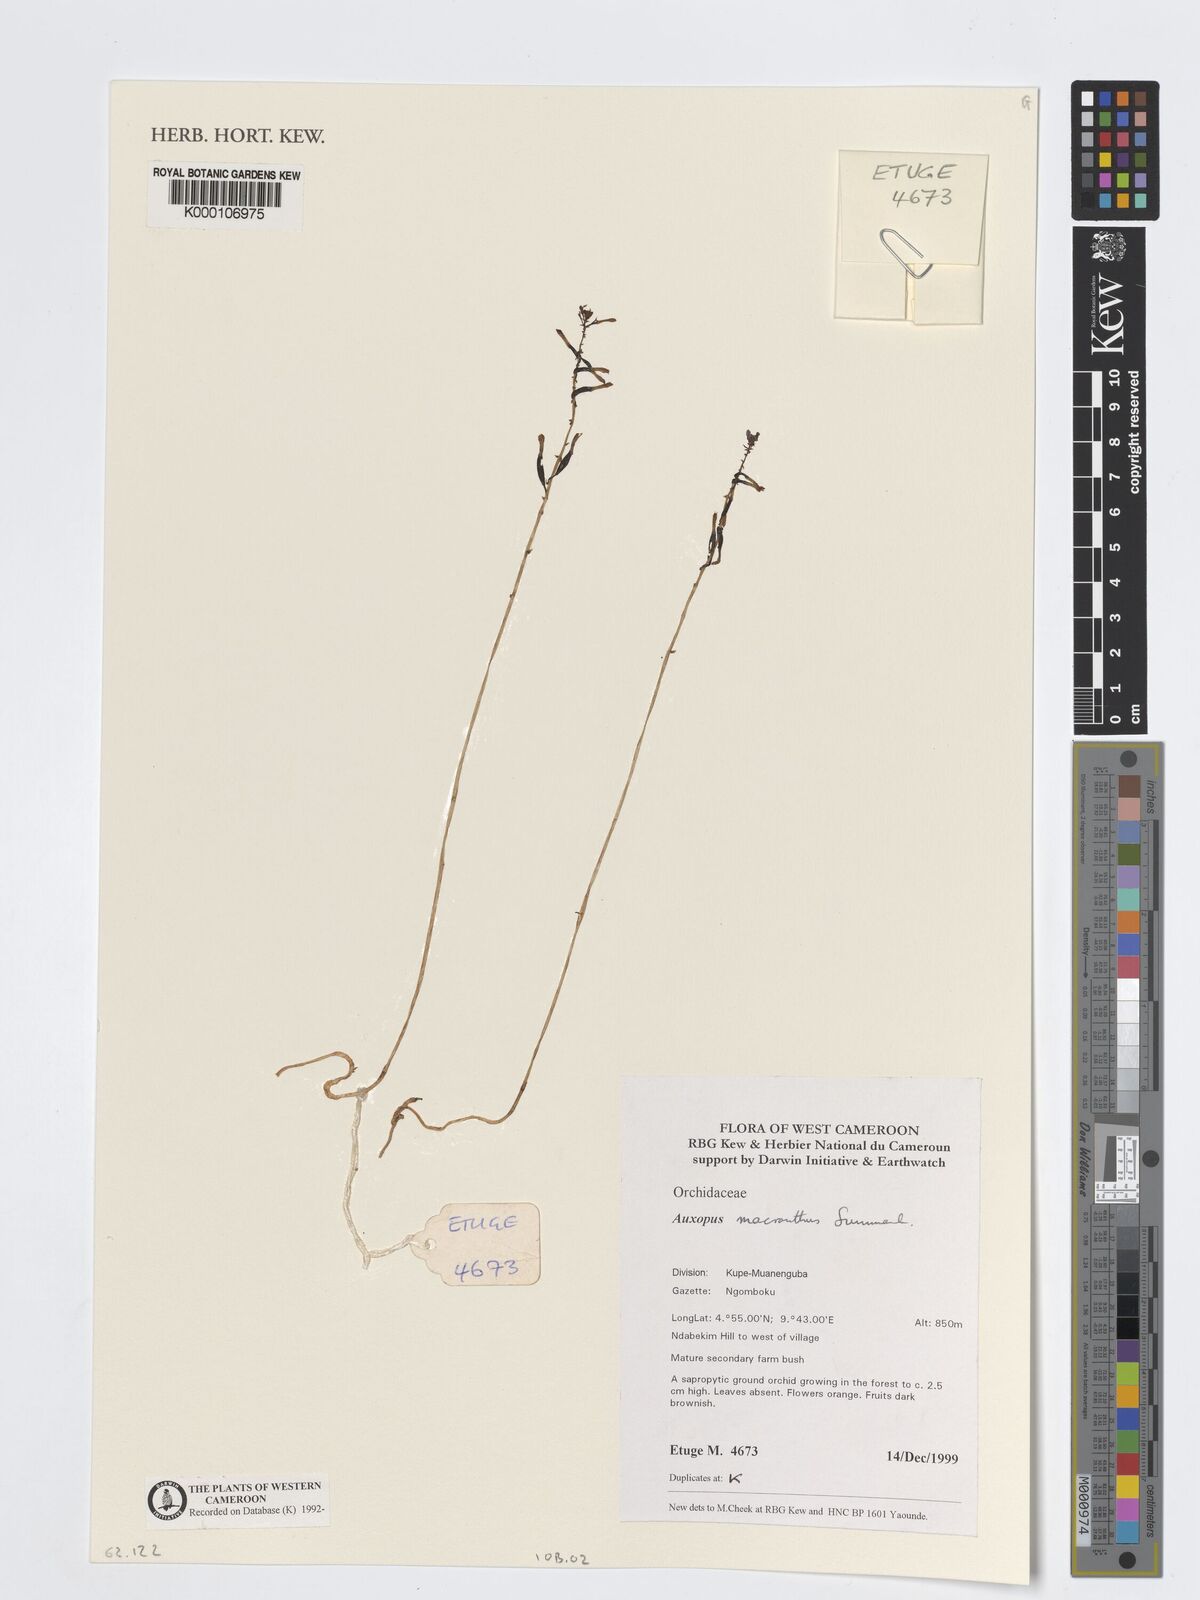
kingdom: Plantae
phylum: Tracheophyta
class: Liliopsida
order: Asparagales
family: Orchidaceae
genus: Auxopus
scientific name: Auxopus macranthus
